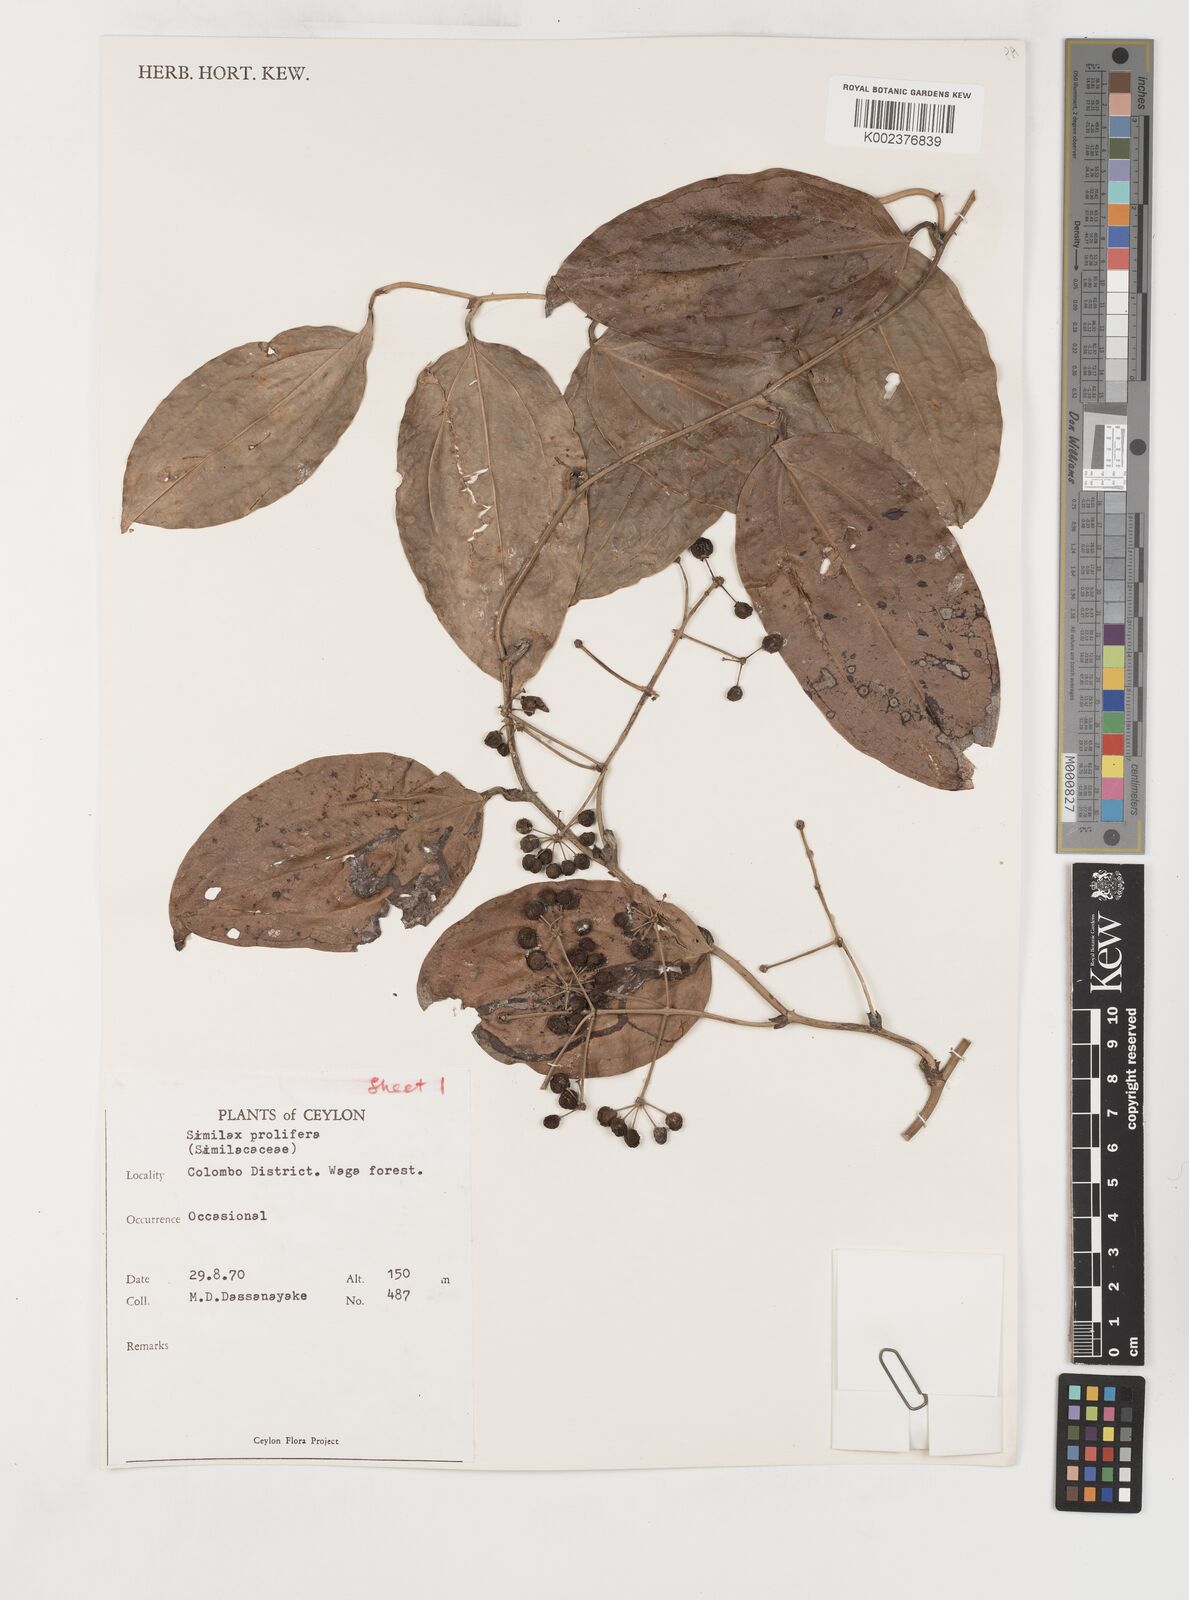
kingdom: Plantae
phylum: Tracheophyta
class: Liliopsida
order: Liliales
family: Smilacaceae
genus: Smilax
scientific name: Smilax prolifera
